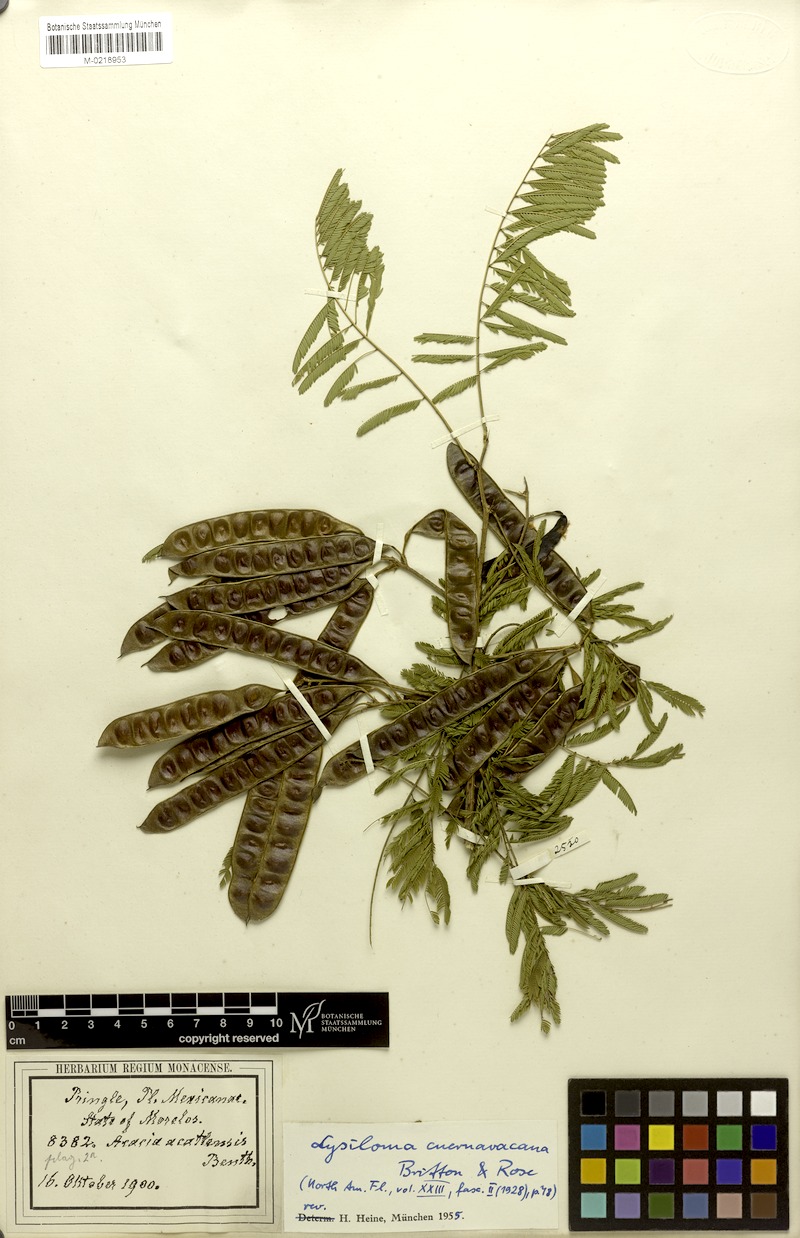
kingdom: Plantae
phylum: Tracheophyta
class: Magnoliopsida
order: Fabales
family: Fabaceae
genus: Lysiloma
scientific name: Lysiloma acapulcense
